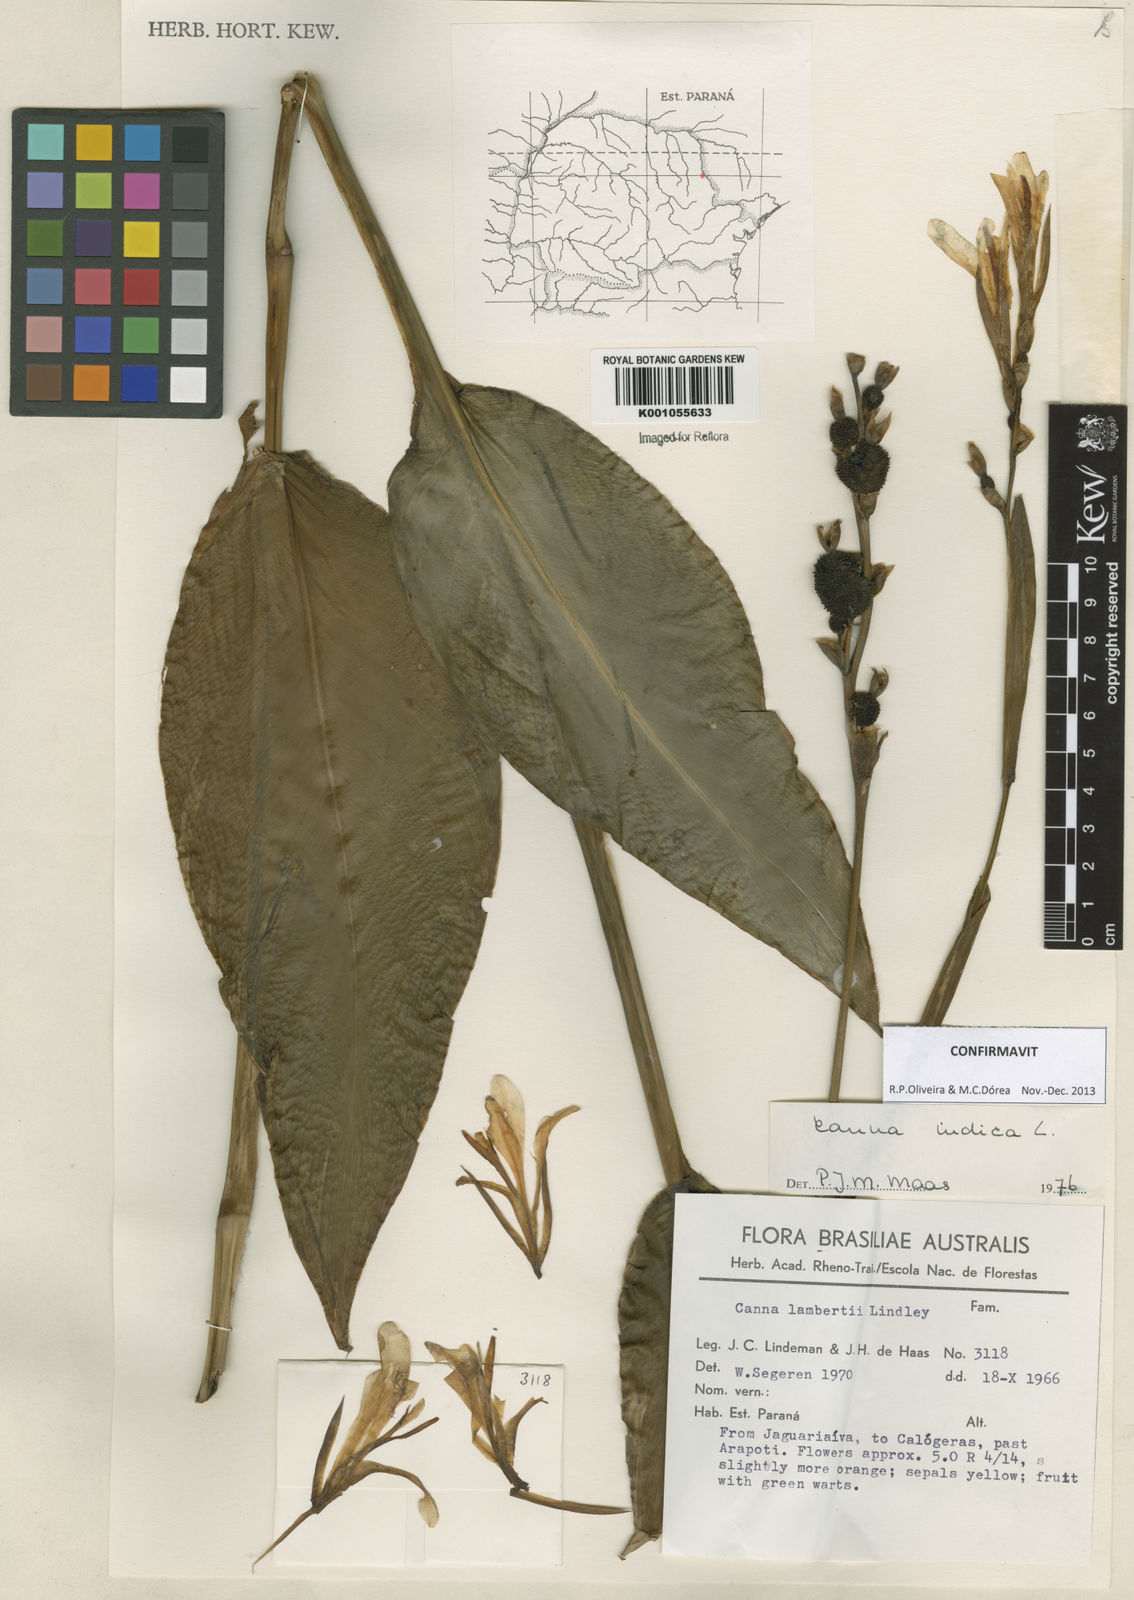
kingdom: Plantae
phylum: Tracheophyta
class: Liliopsida
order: Zingiberales
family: Cannaceae
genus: Canna
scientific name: Canna indica
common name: Indian shot
